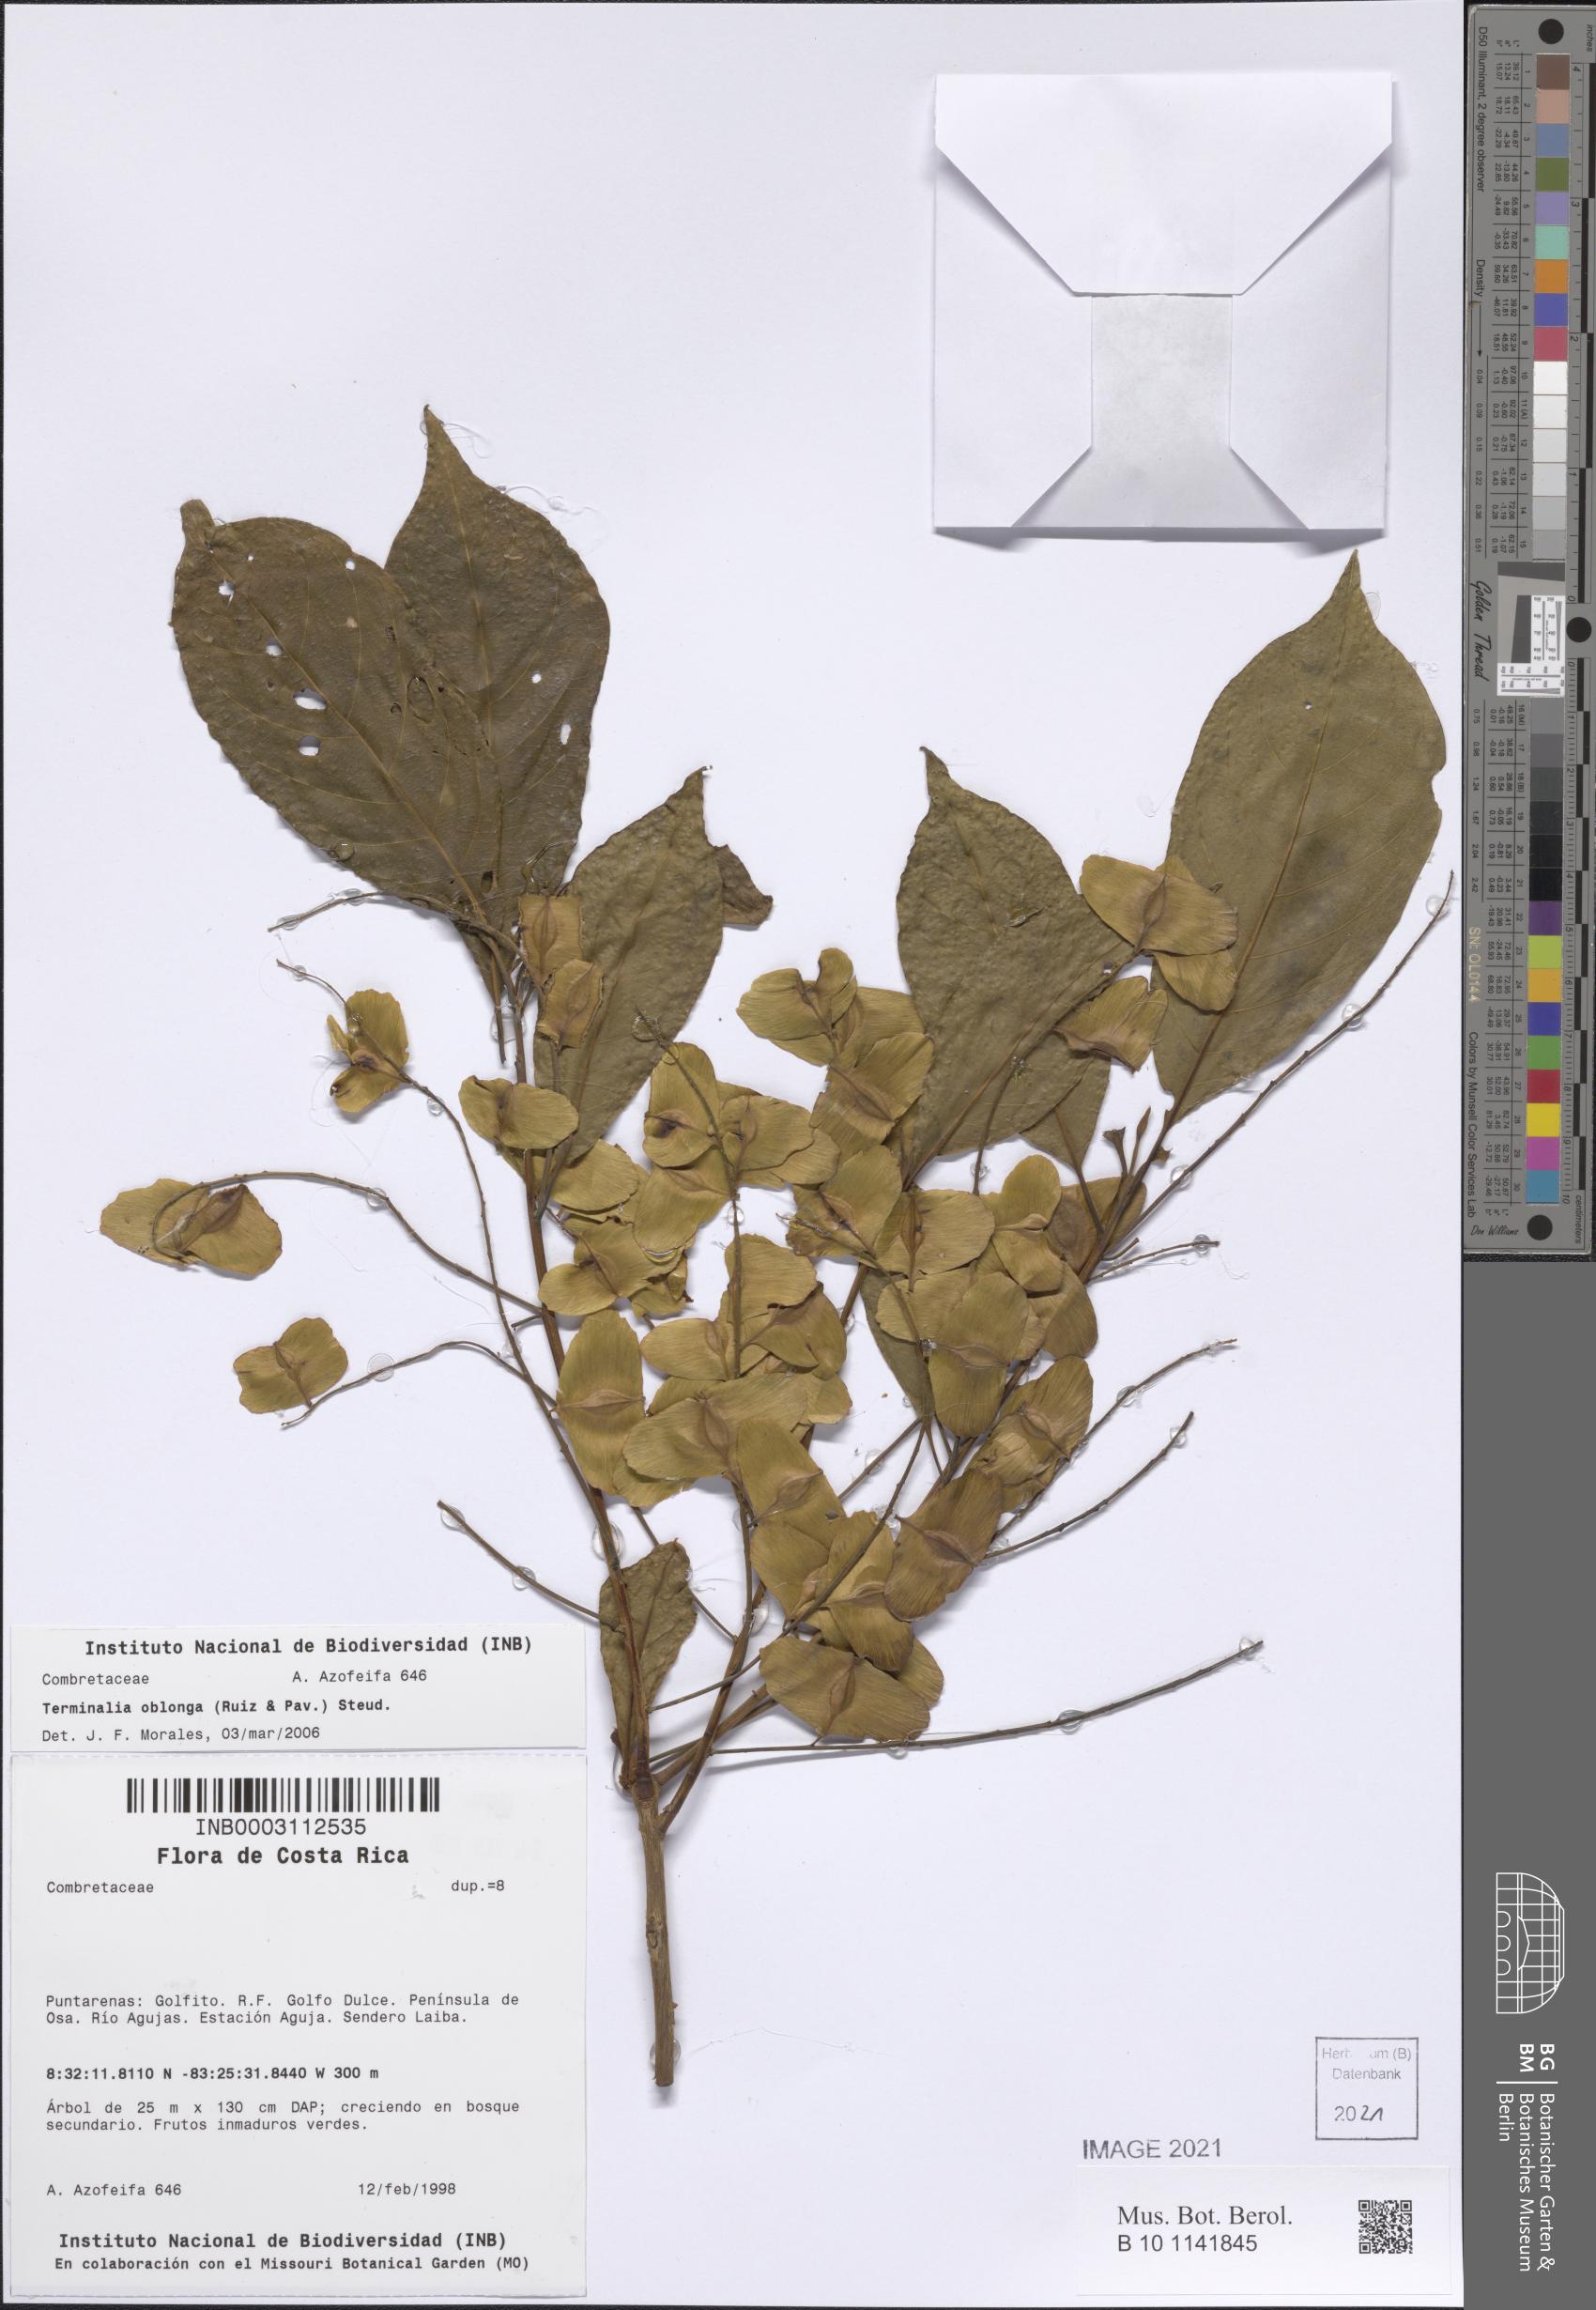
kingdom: Plantae
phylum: Tracheophyta
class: Magnoliopsida
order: Myrtales
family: Combretaceae
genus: Terminalia
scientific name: Terminalia oblonga
